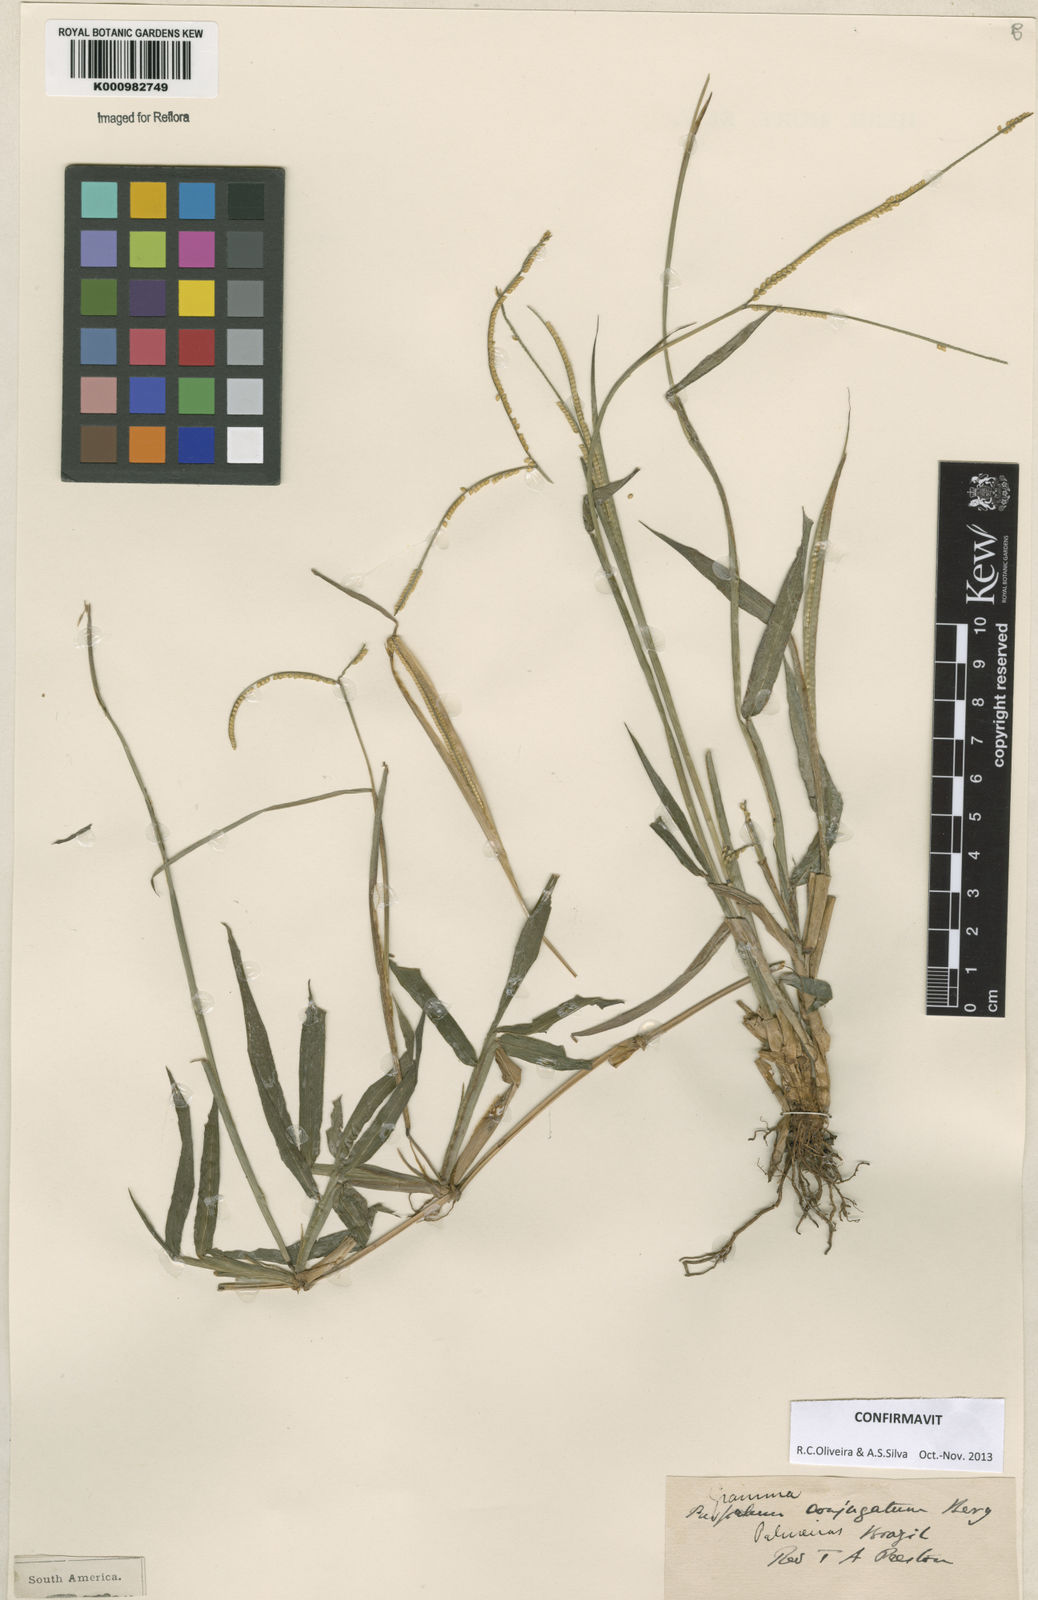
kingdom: Plantae
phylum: Tracheophyta
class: Liliopsida
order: Poales
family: Poaceae
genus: Paspalum
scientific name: Paspalum conjugatum
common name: Hilograss
